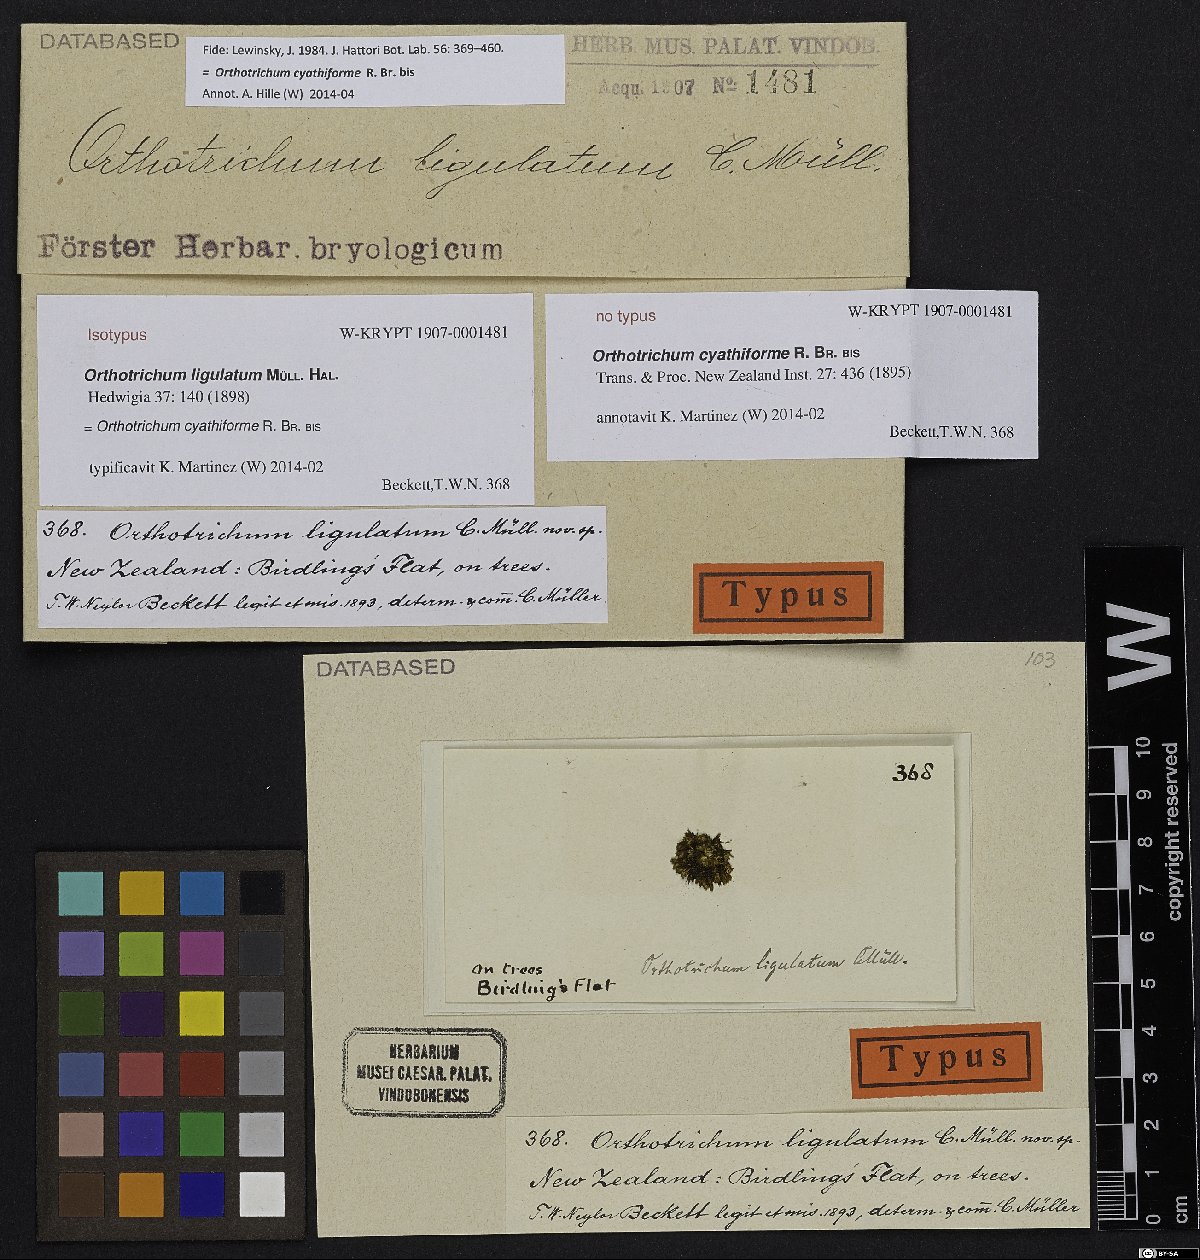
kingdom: Plantae
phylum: Bryophyta
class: Bryopsida
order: Orthotrichales
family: Orthotrichaceae
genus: Lewinskya
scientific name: Lewinskya cyathiformis
